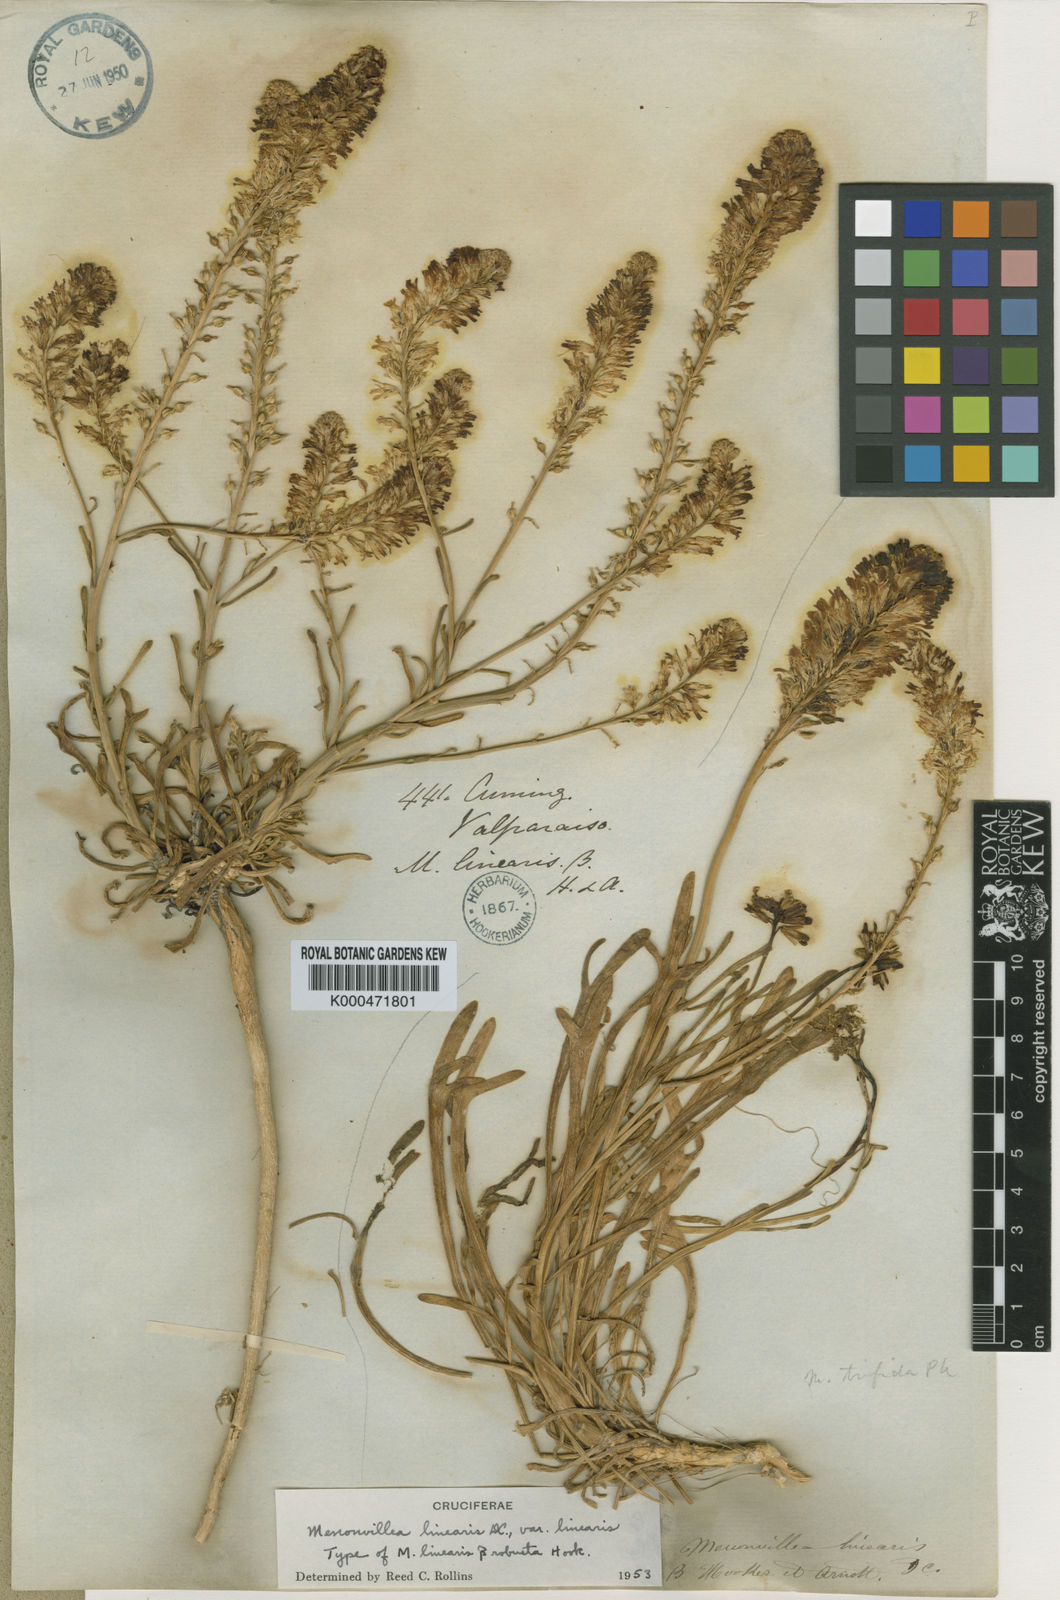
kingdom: Plantae
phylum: Tracheophyta
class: Magnoliopsida
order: Brassicales
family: Brassicaceae
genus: Menonvillea
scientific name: Menonvillea linearis
